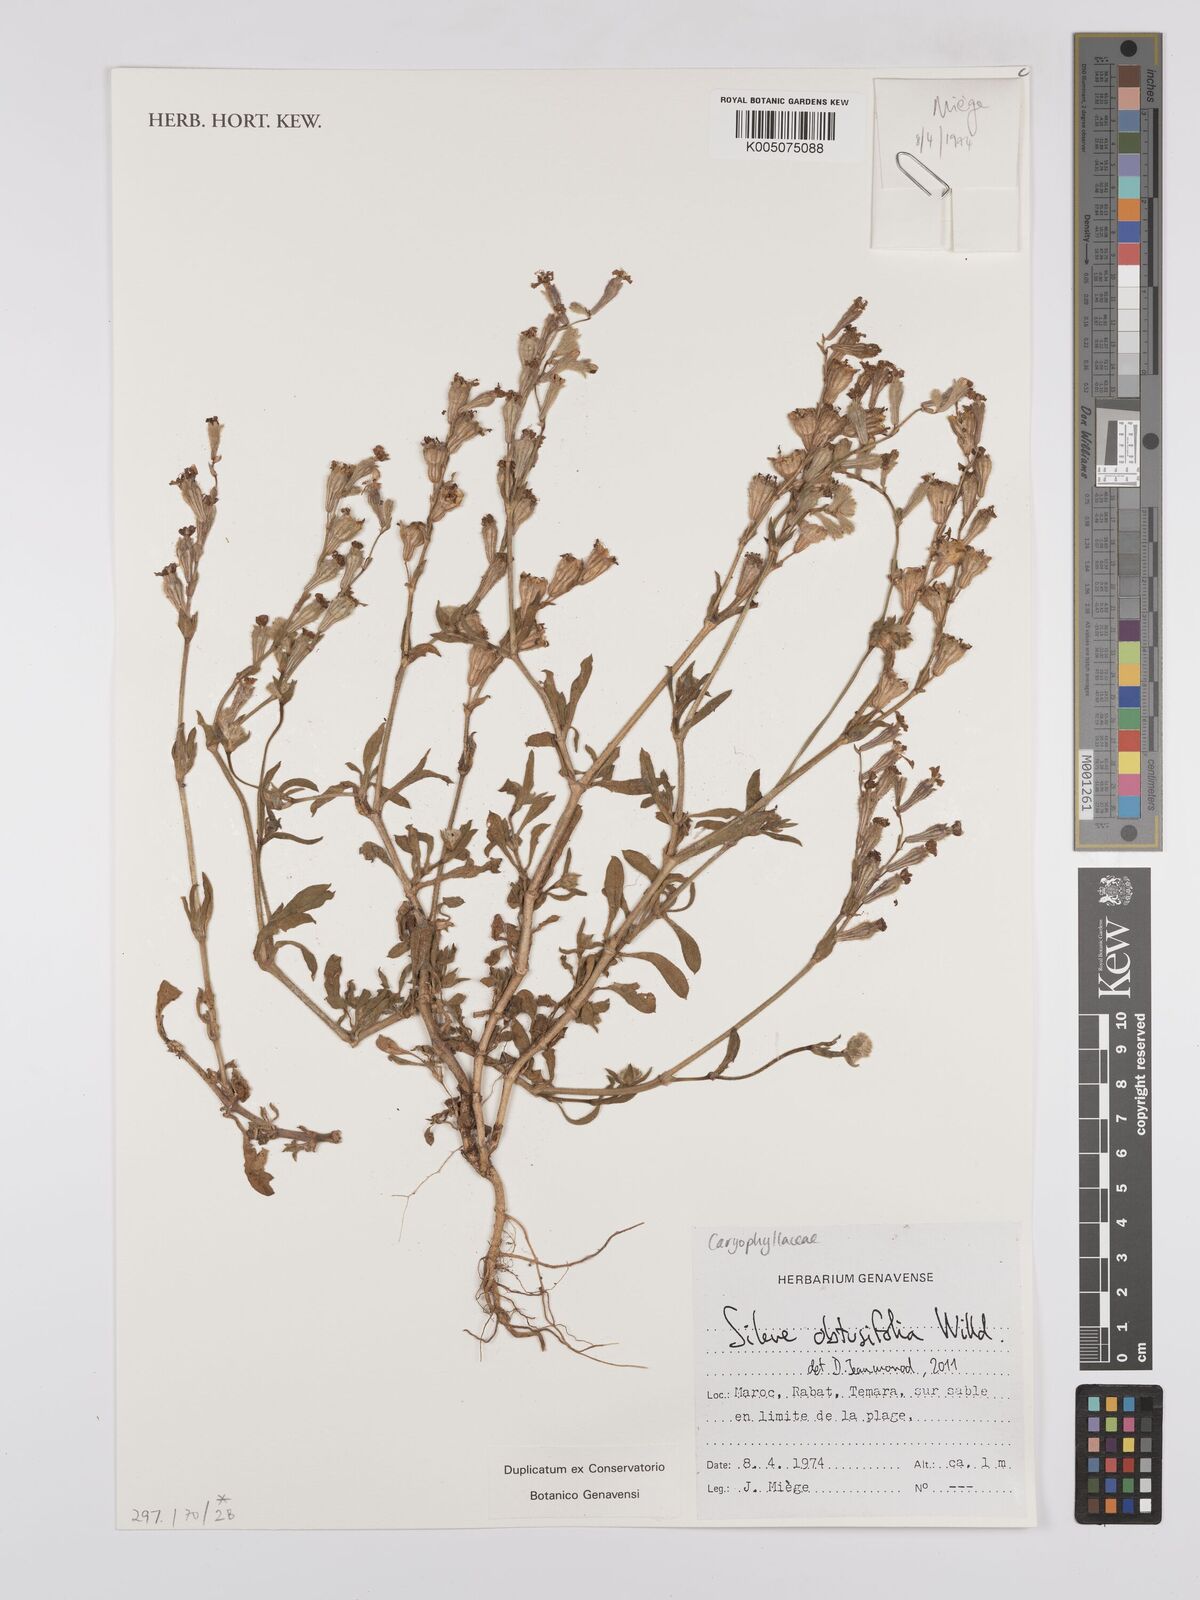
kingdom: Plantae
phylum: Tracheophyta
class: Magnoliopsida
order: Caryophyllales
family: Caryophyllaceae
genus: Silene
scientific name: Silene obtusifolia
